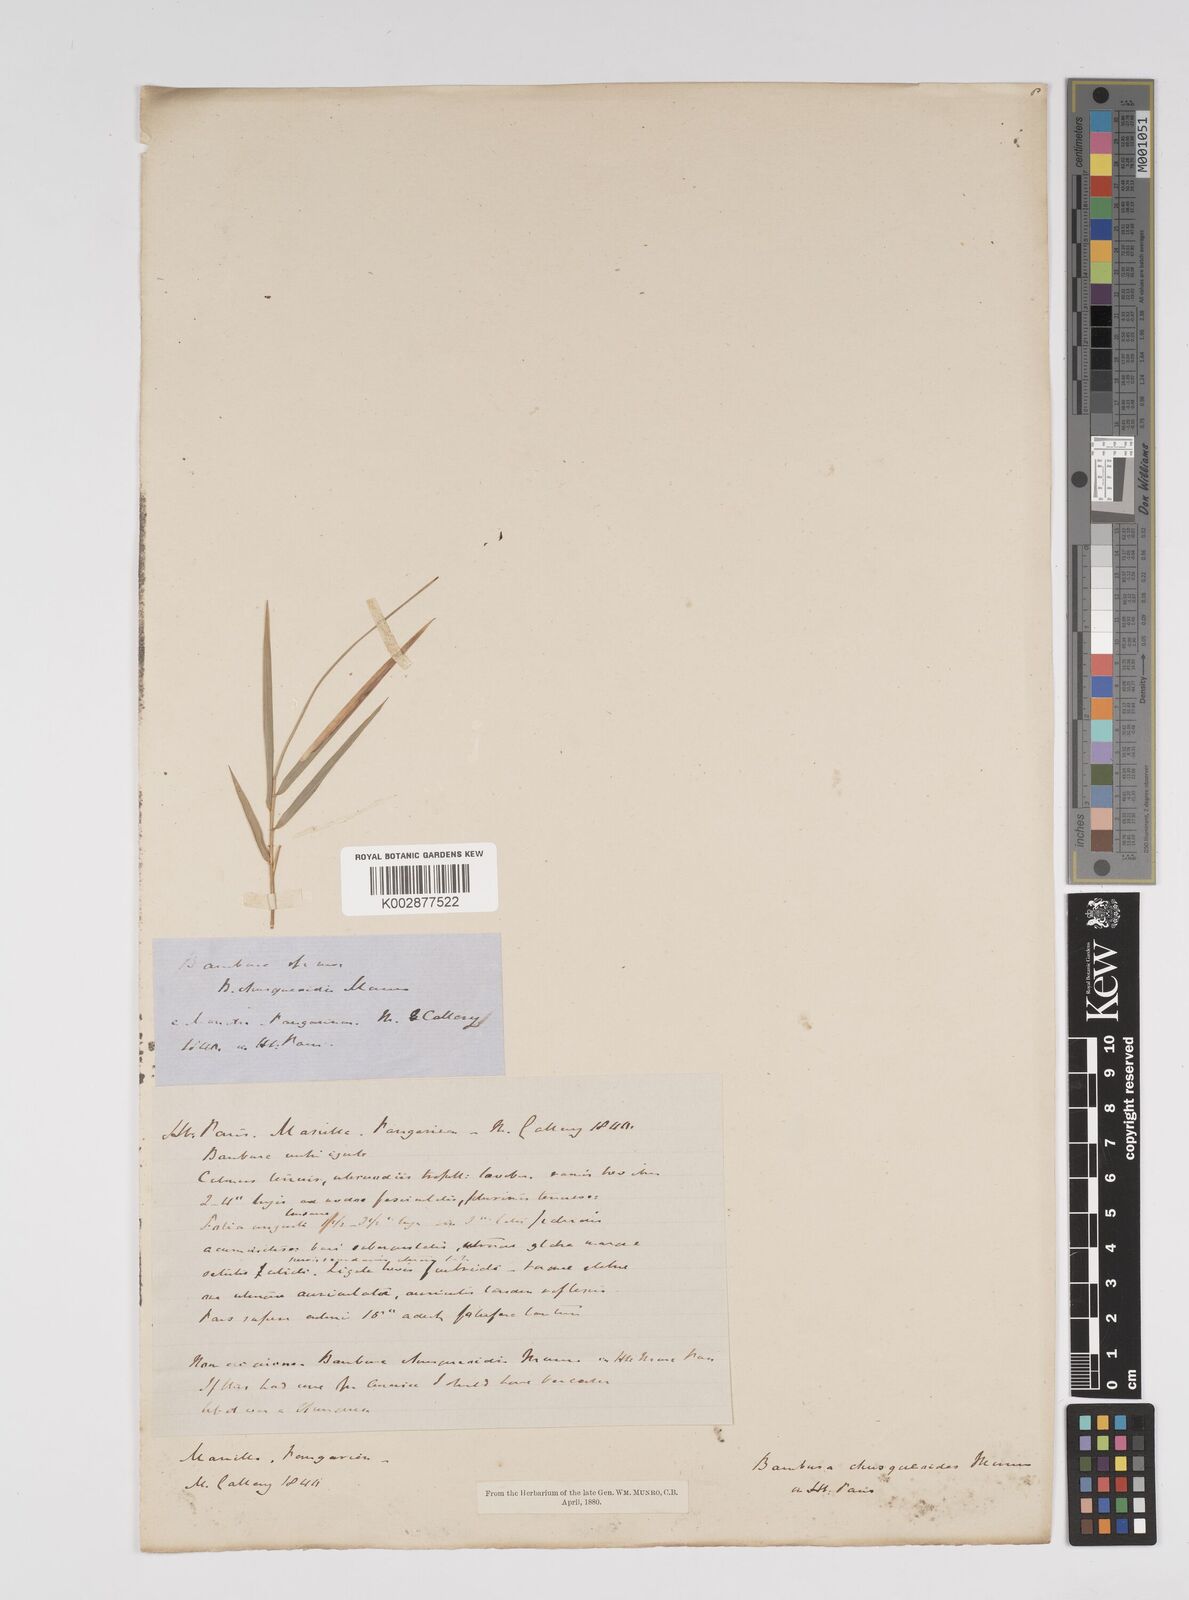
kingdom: Plantae
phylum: Tracheophyta
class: Liliopsida
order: Poales
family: Poaceae
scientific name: Poaceae
